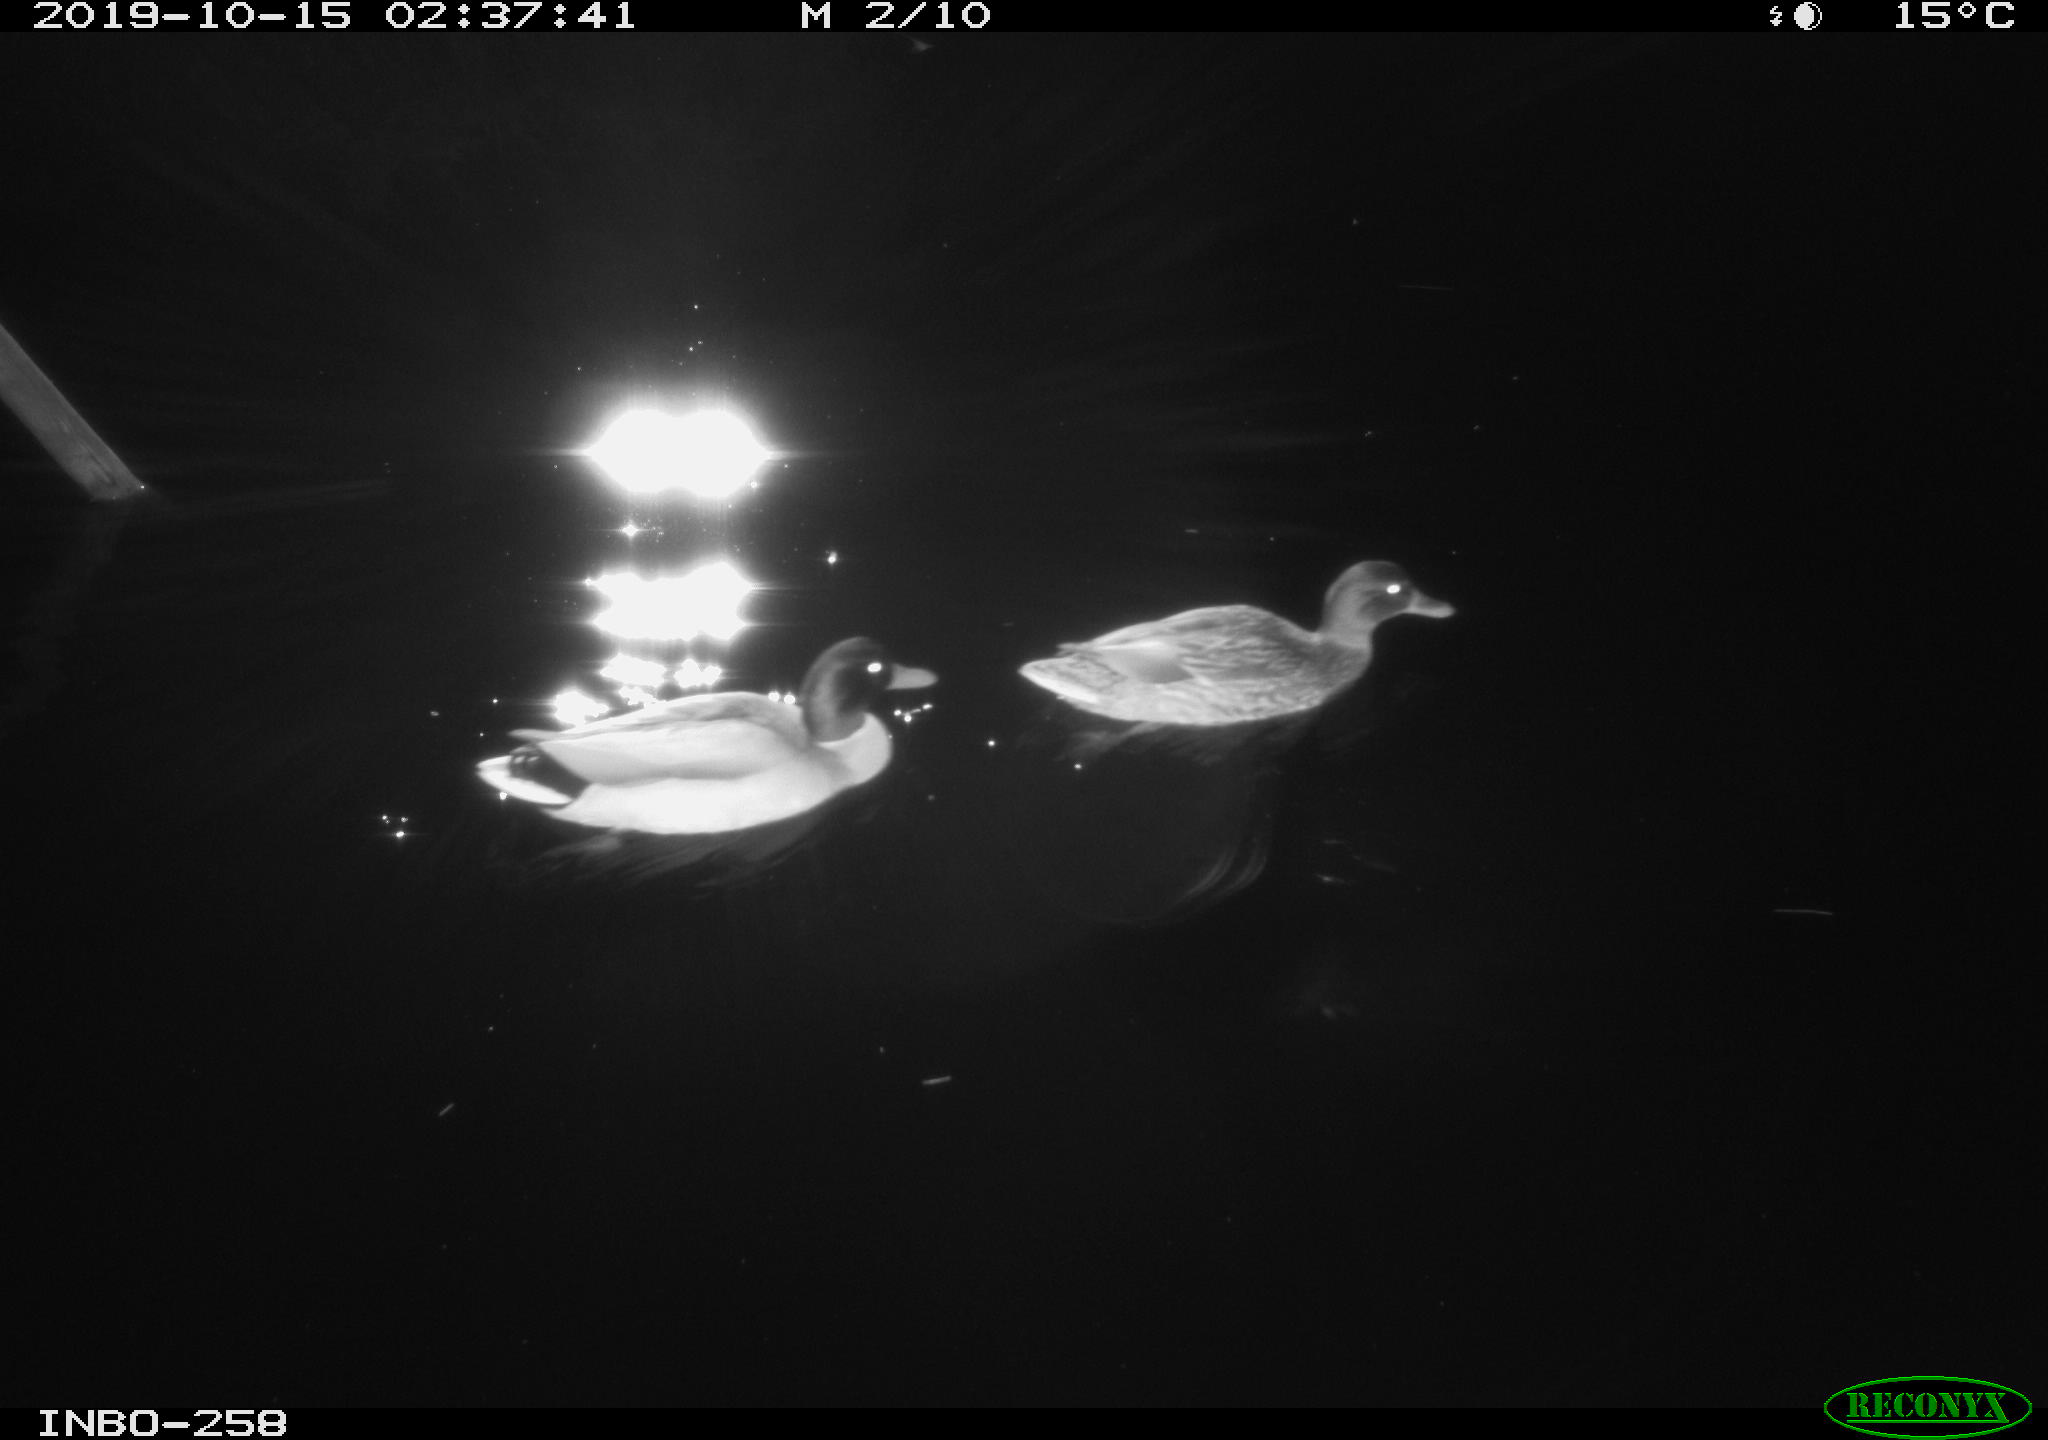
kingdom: Animalia
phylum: Chordata
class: Aves
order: Anseriformes
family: Anatidae
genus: Anas
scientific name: Anas platyrhynchos
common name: Mallard
